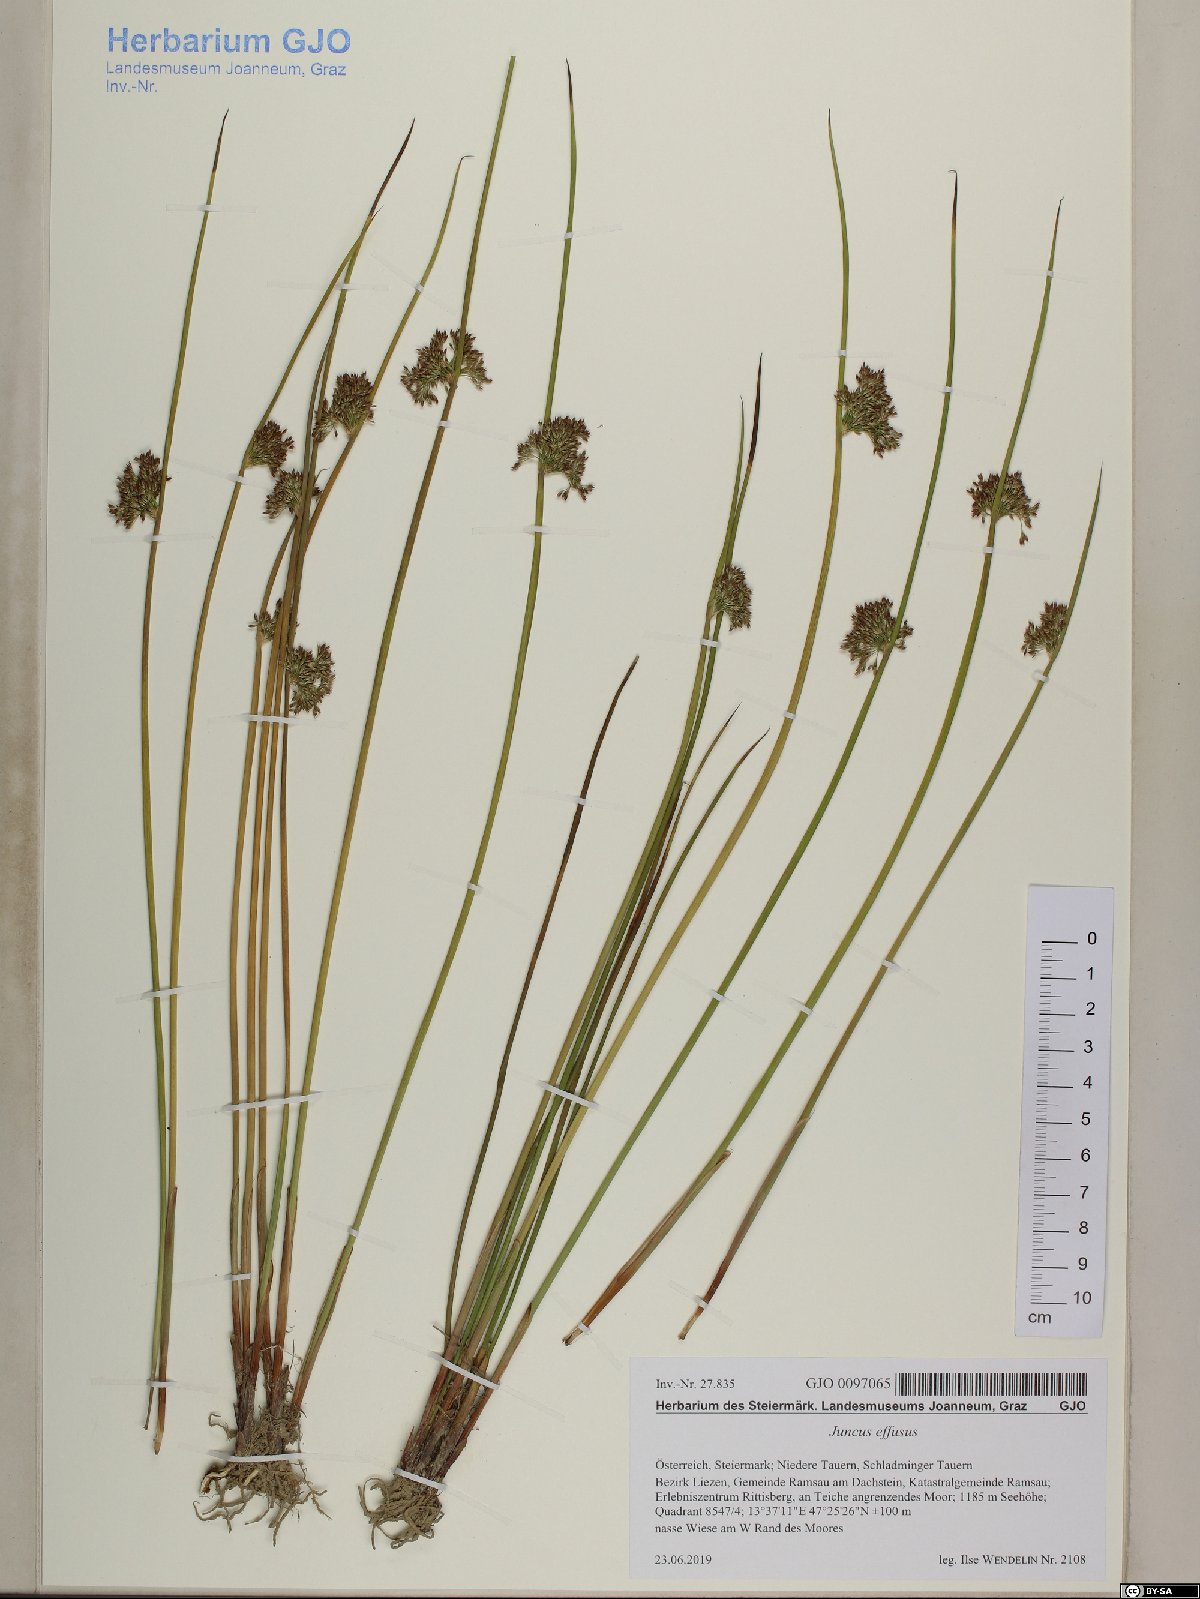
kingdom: Plantae
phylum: Tracheophyta
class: Liliopsida
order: Poales
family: Juncaceae
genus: Juncus
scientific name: Juncus effusus
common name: Soft rush
